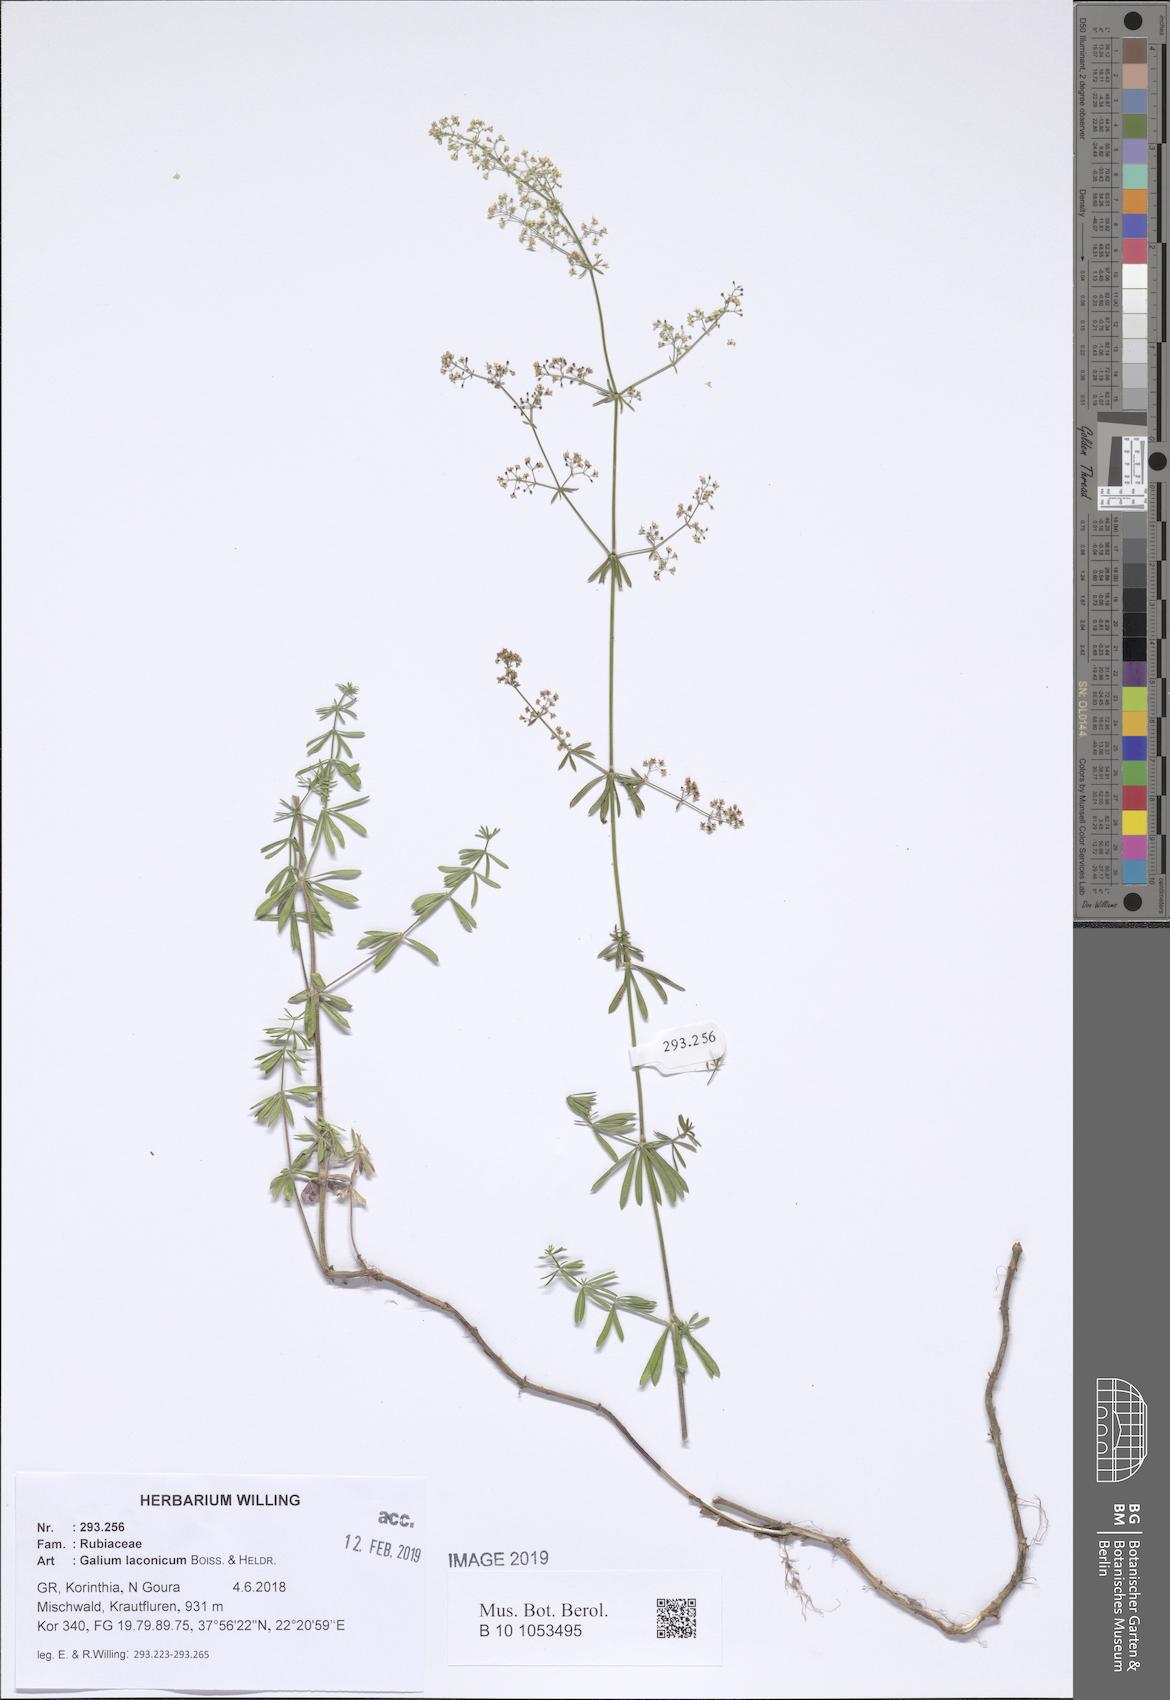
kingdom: Plantae
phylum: Tracheophyta
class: Magnoliopsida
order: Gentianales
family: Rubiaceae
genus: Galium
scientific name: Galium laconicum
